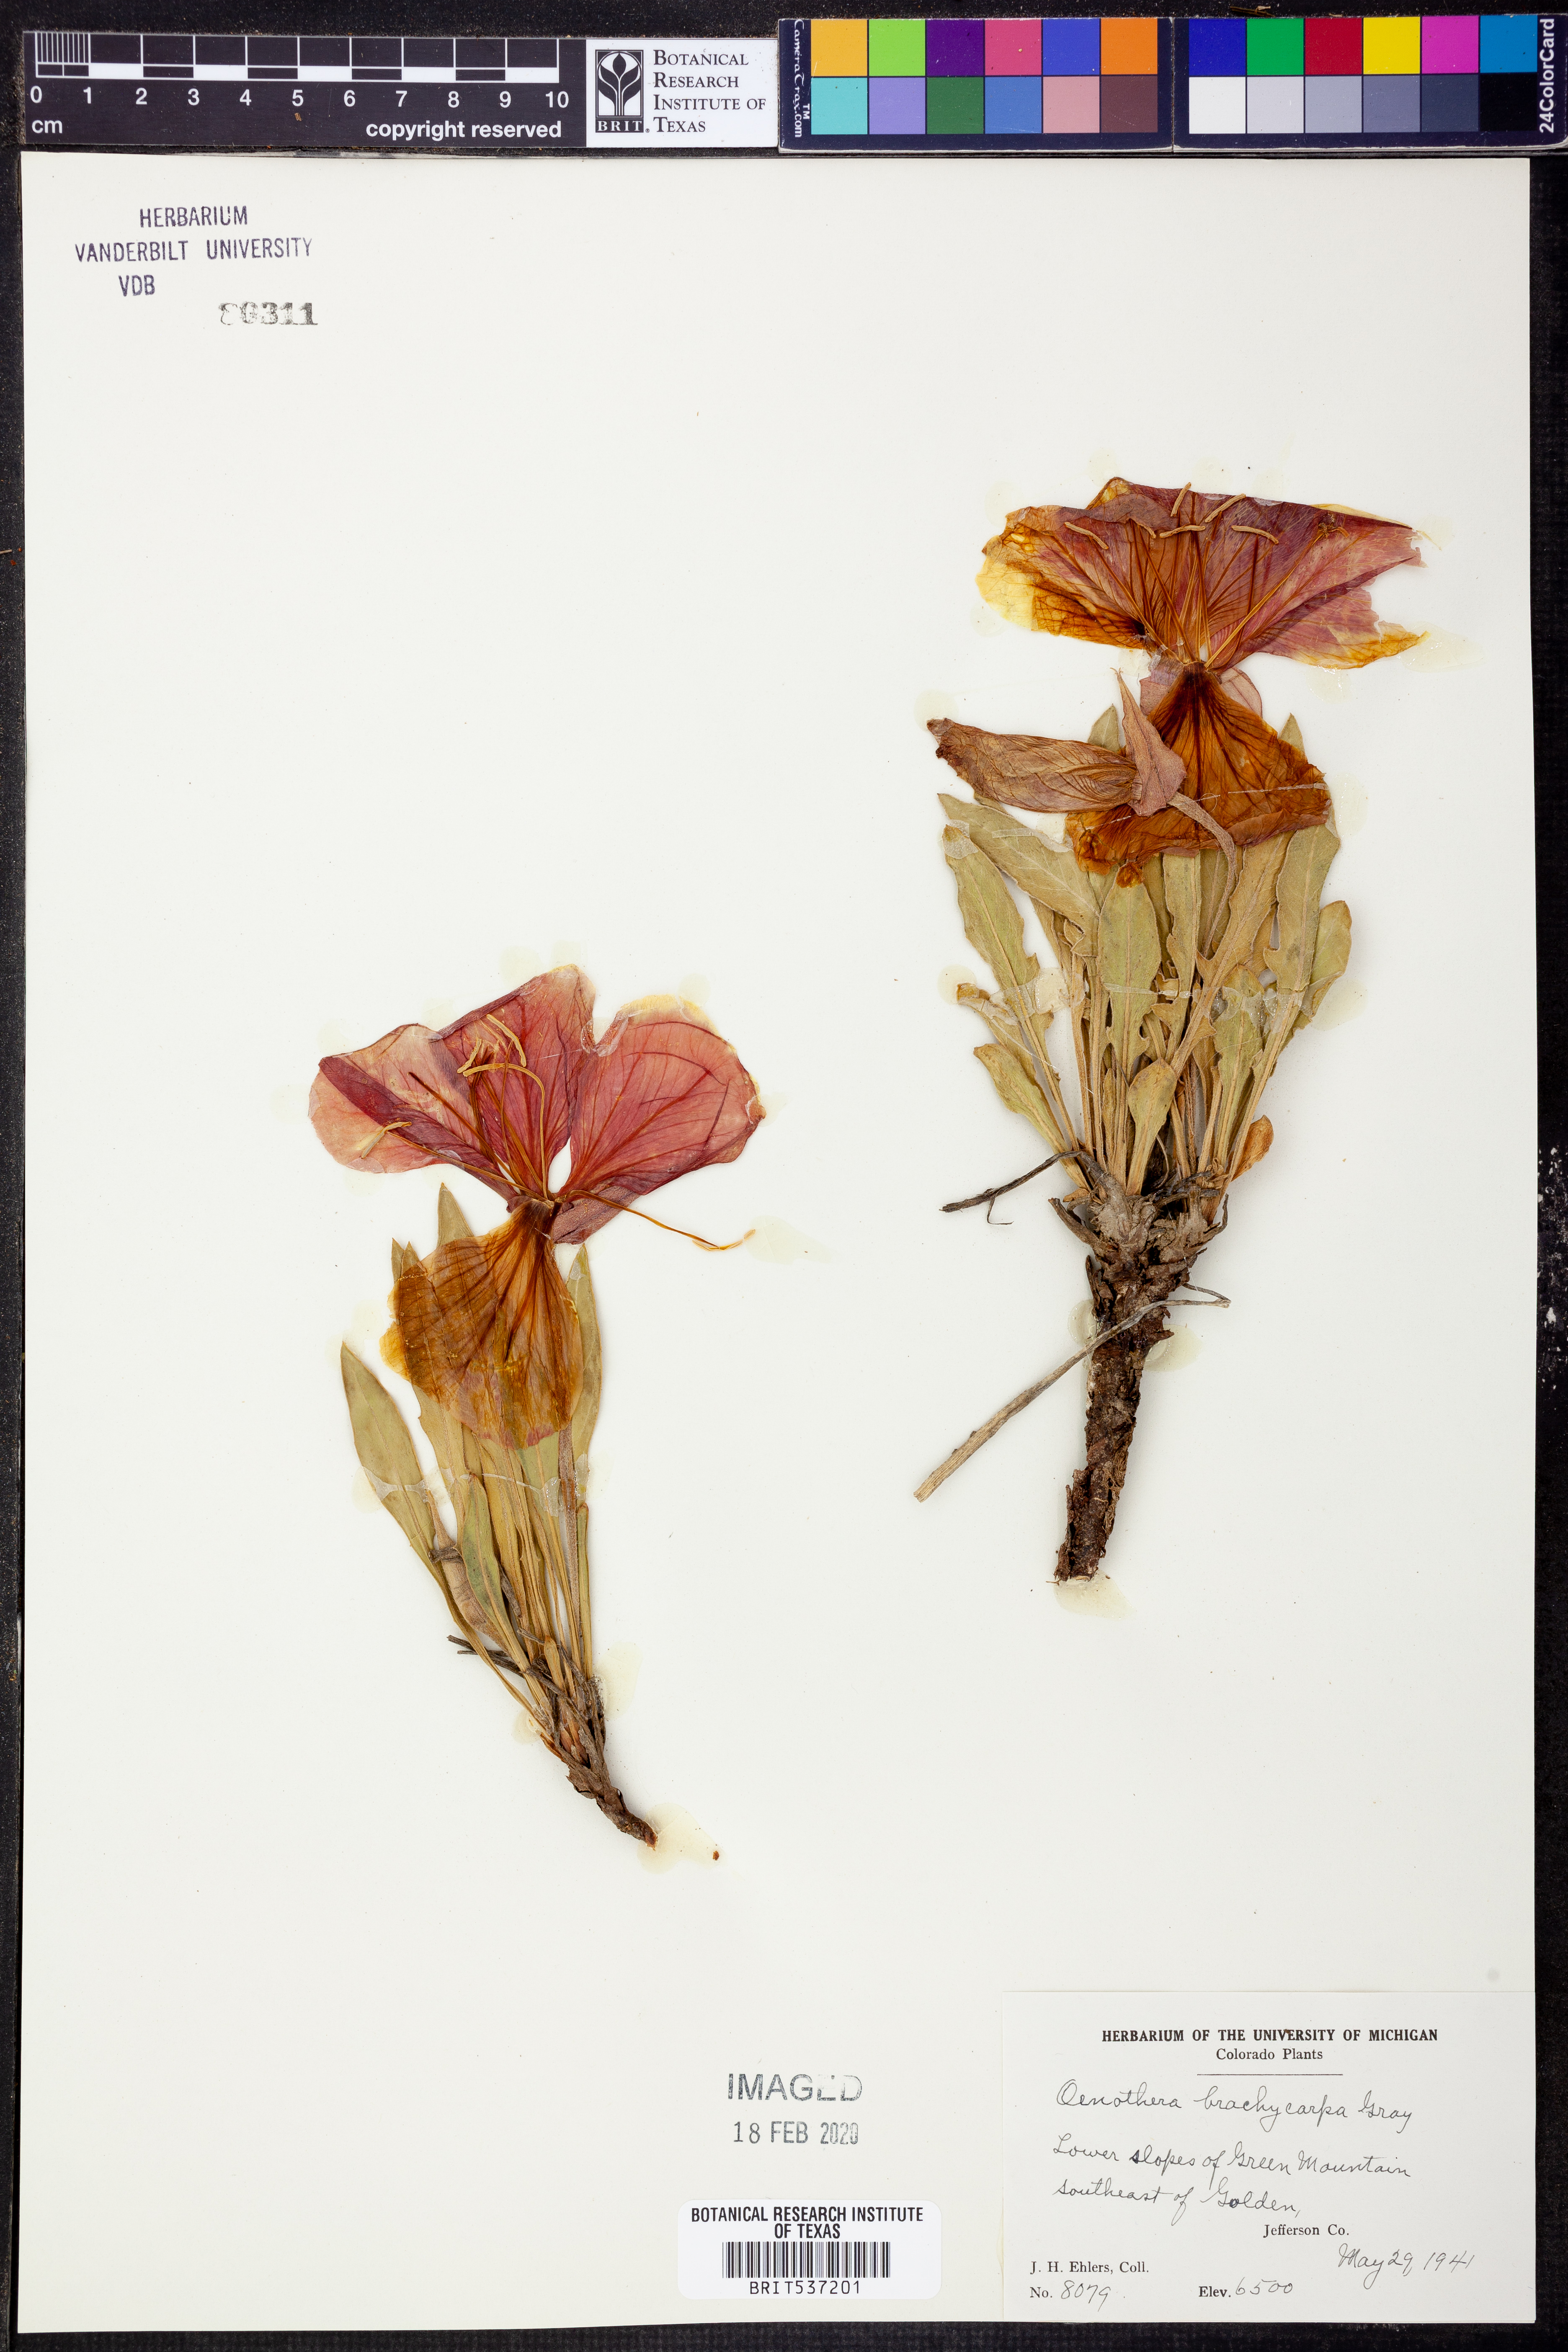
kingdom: Plantae
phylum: Tracheophyta
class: Magnoliopsida
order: Myrtales
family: Onagraceae
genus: Oenothera
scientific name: Oenothera brachycarpa
